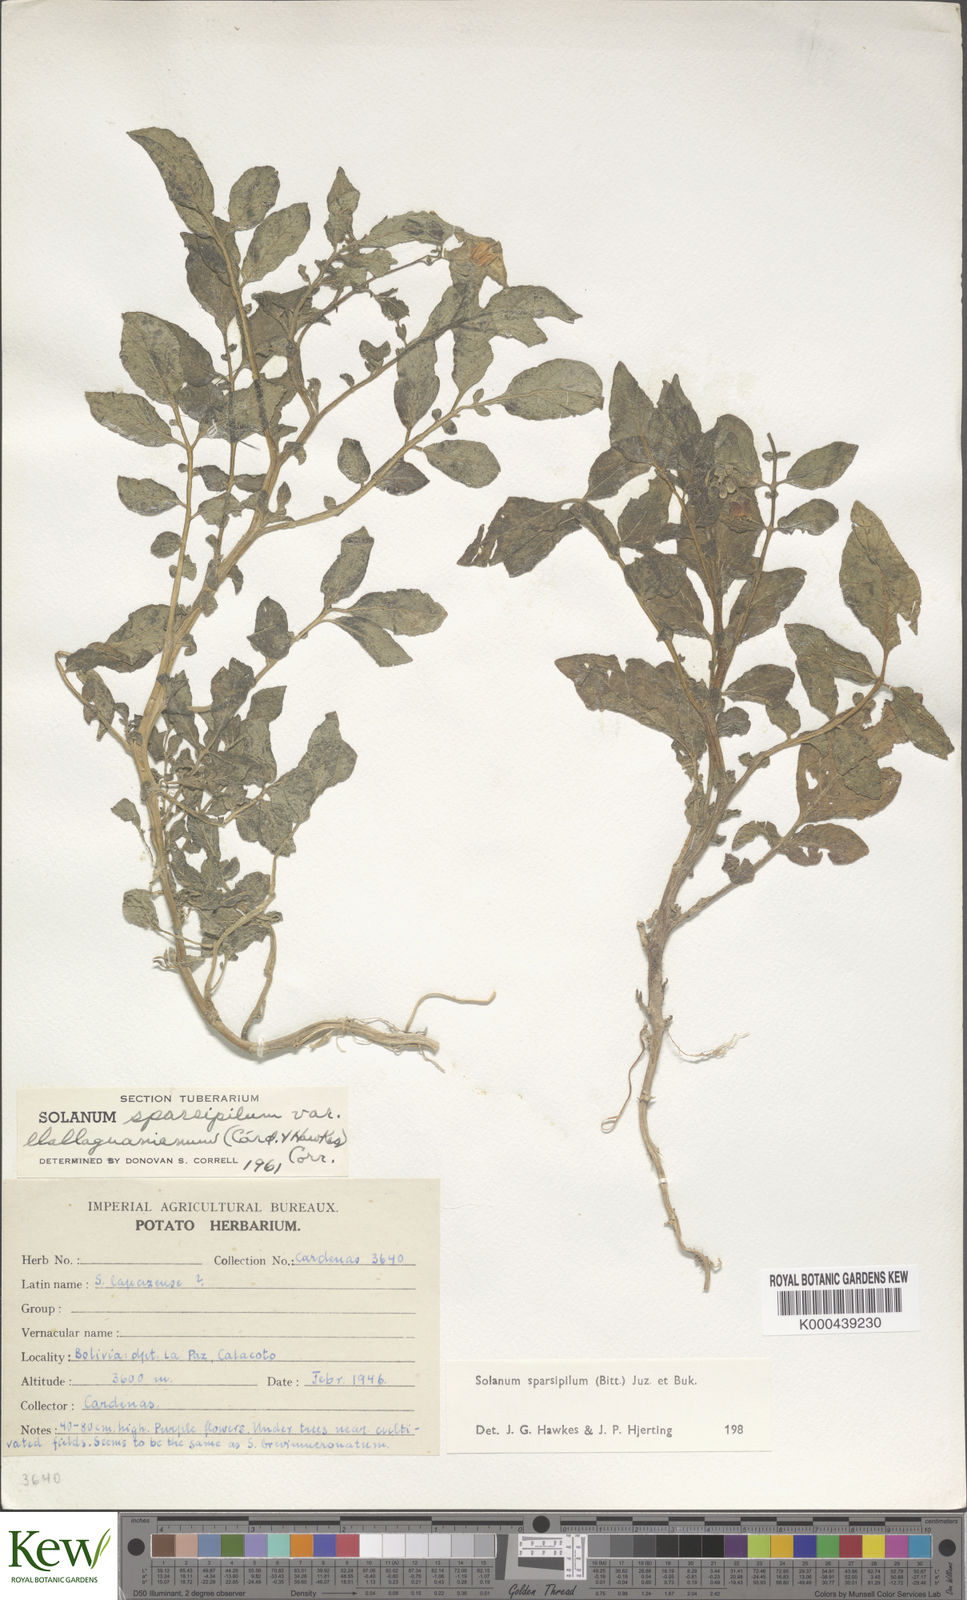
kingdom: Plantae
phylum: Tracheophyta
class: Magnoliopsida
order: Solanales
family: Solanaceae
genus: Solanum
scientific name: Solanum brevicaule
